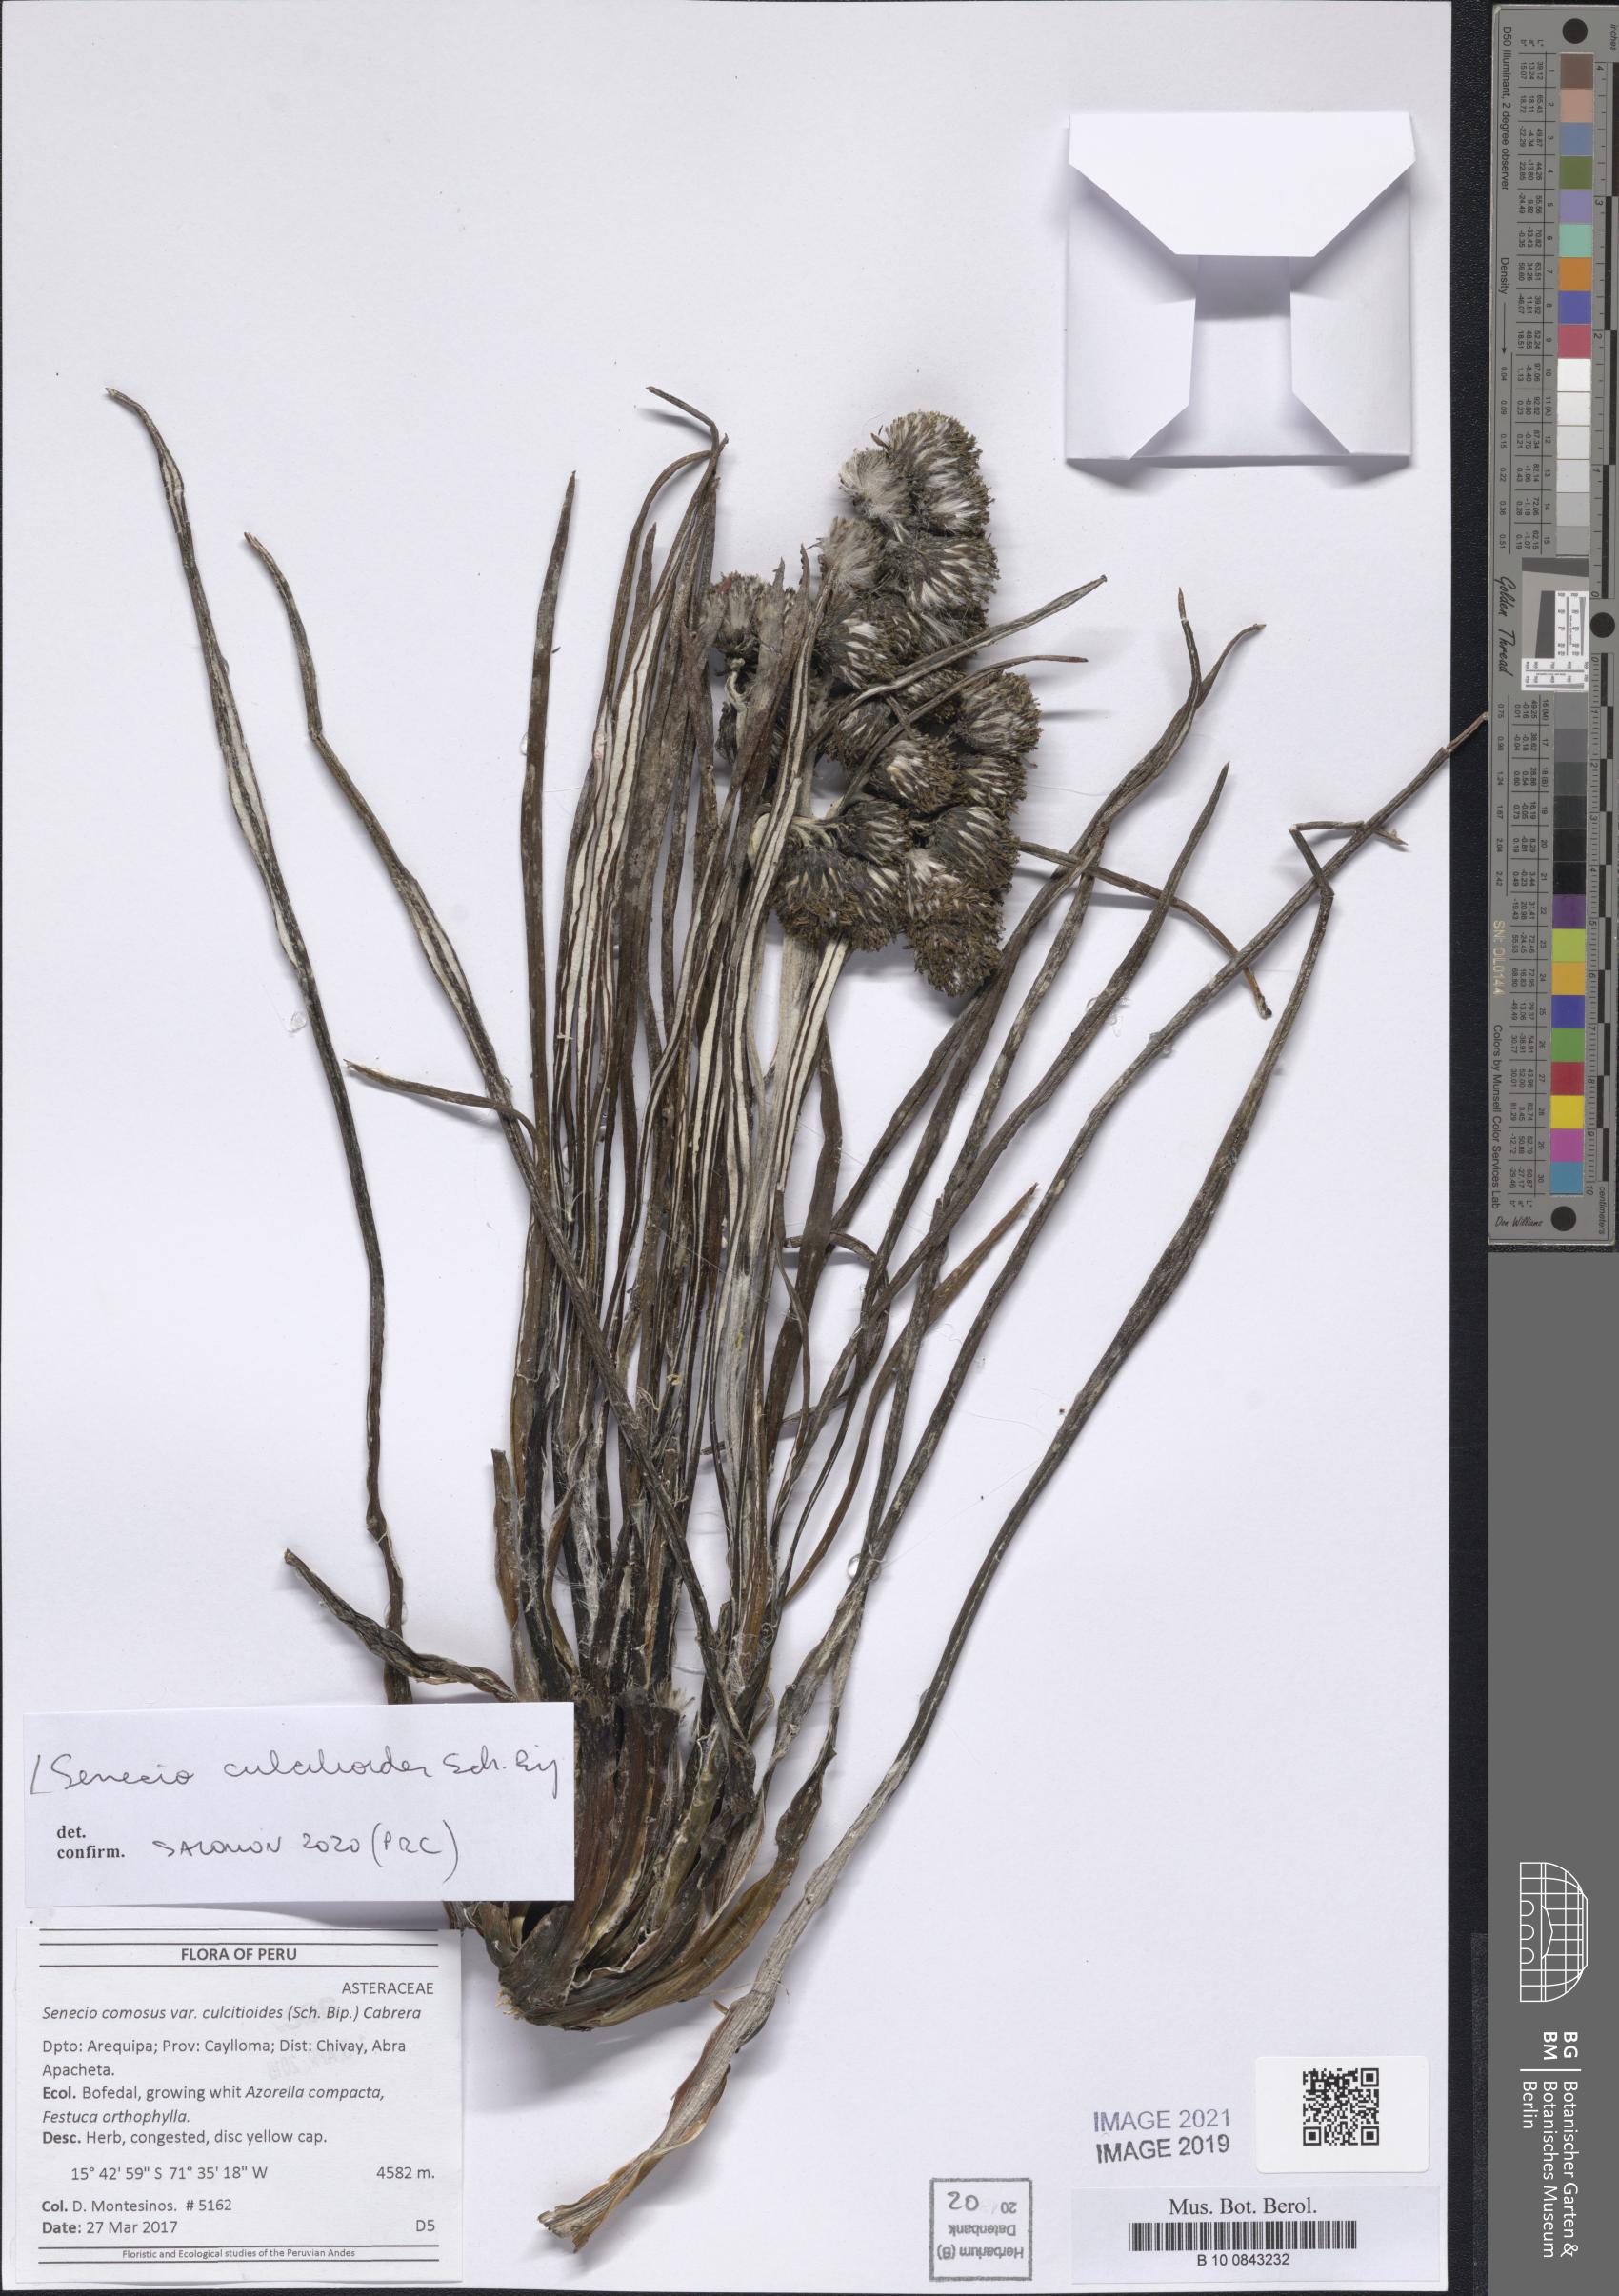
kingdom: Plantae
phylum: Tracheophyta
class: Magnoliopsida
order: Asterales
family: Asteraceae
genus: Senecio
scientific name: Senecio comosus
